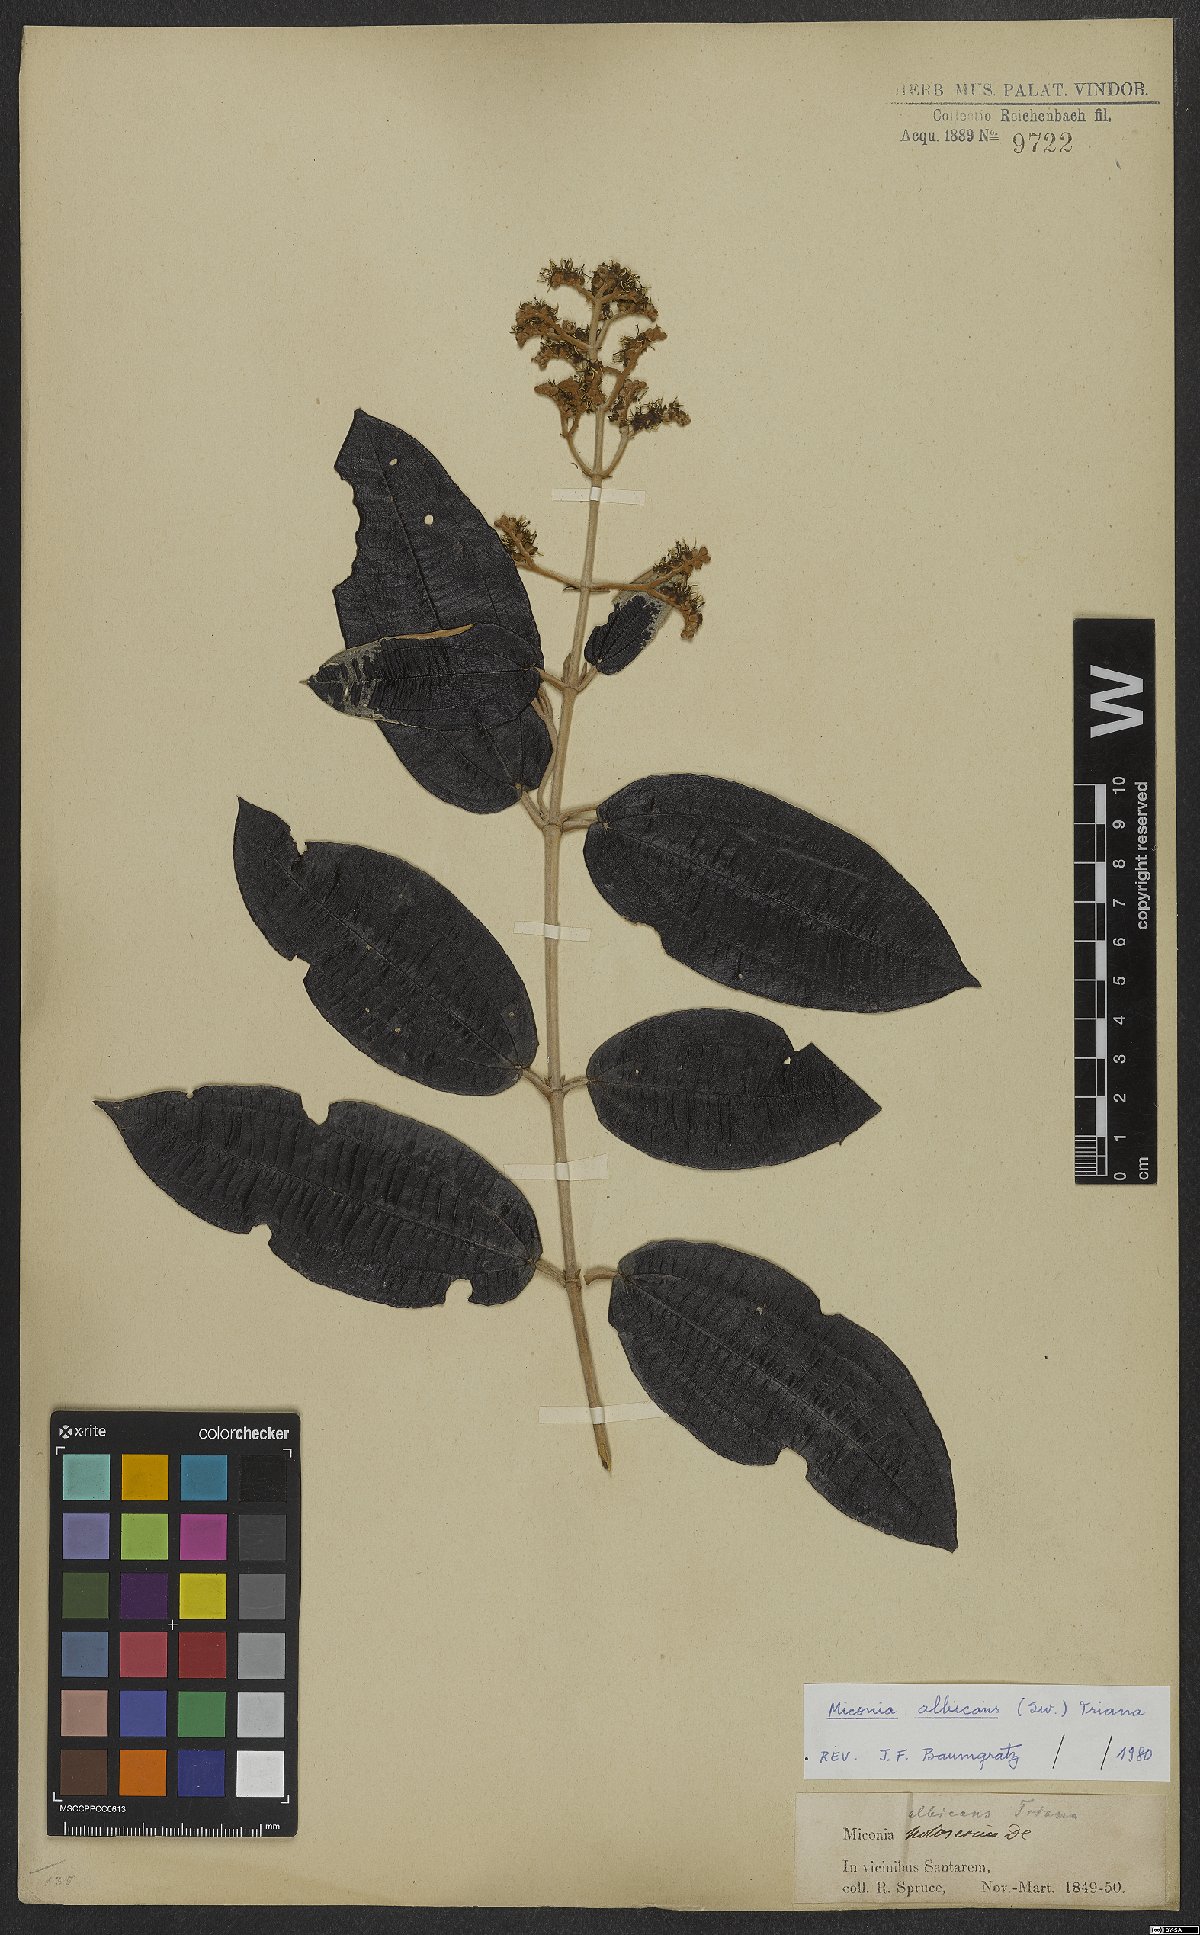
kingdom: Plantae
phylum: Tracheophyta
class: Magnoliopsida
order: Myrtales
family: Melastomataceae
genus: Miconia
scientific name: Miconia albicans
